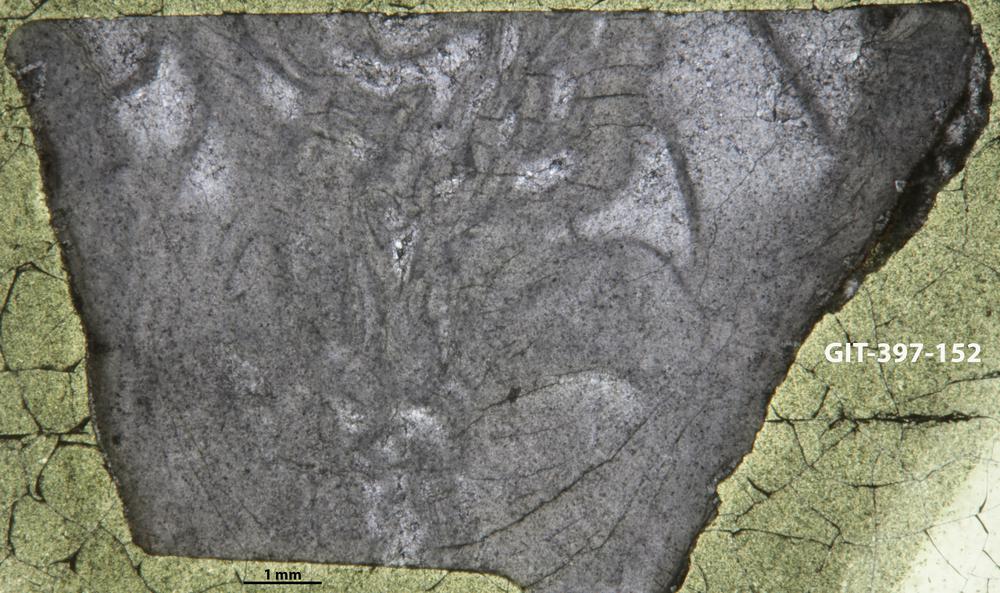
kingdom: Animalia
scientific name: Animalia
